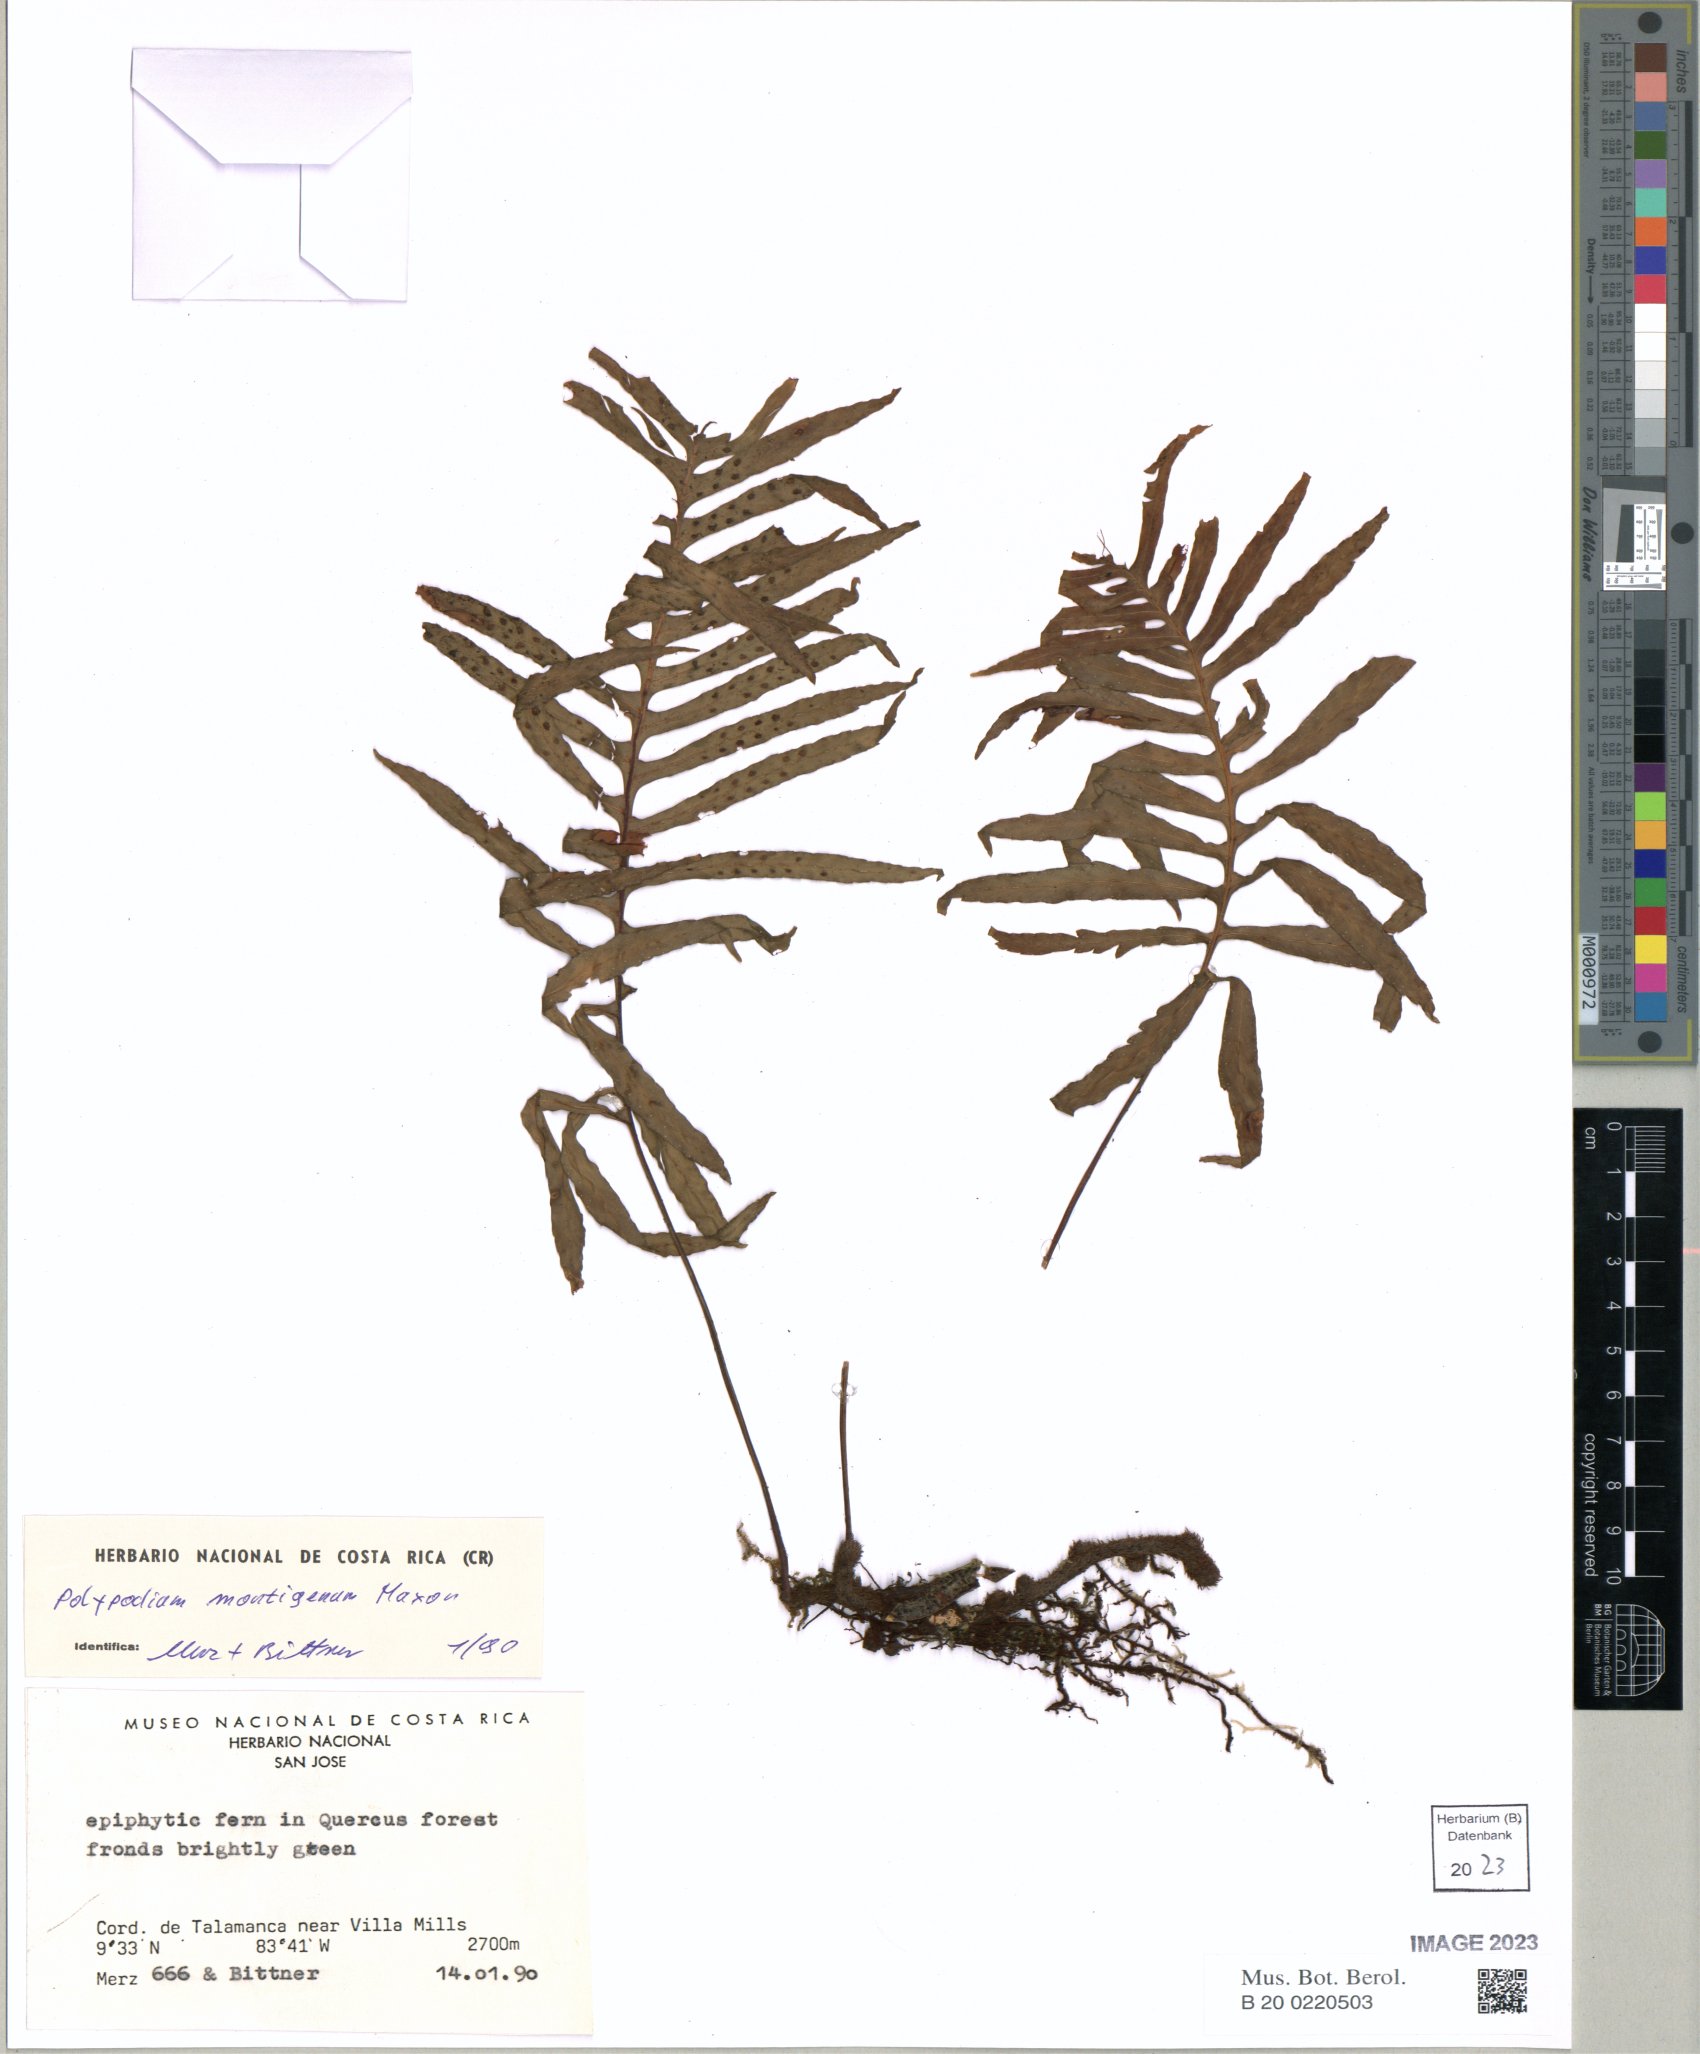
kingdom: Plantae
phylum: Tracheophyta
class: Polypodiopsida
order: Polypodiales
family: Polypodiaceae
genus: Pleopeltis
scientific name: Pleopeltis montigena
